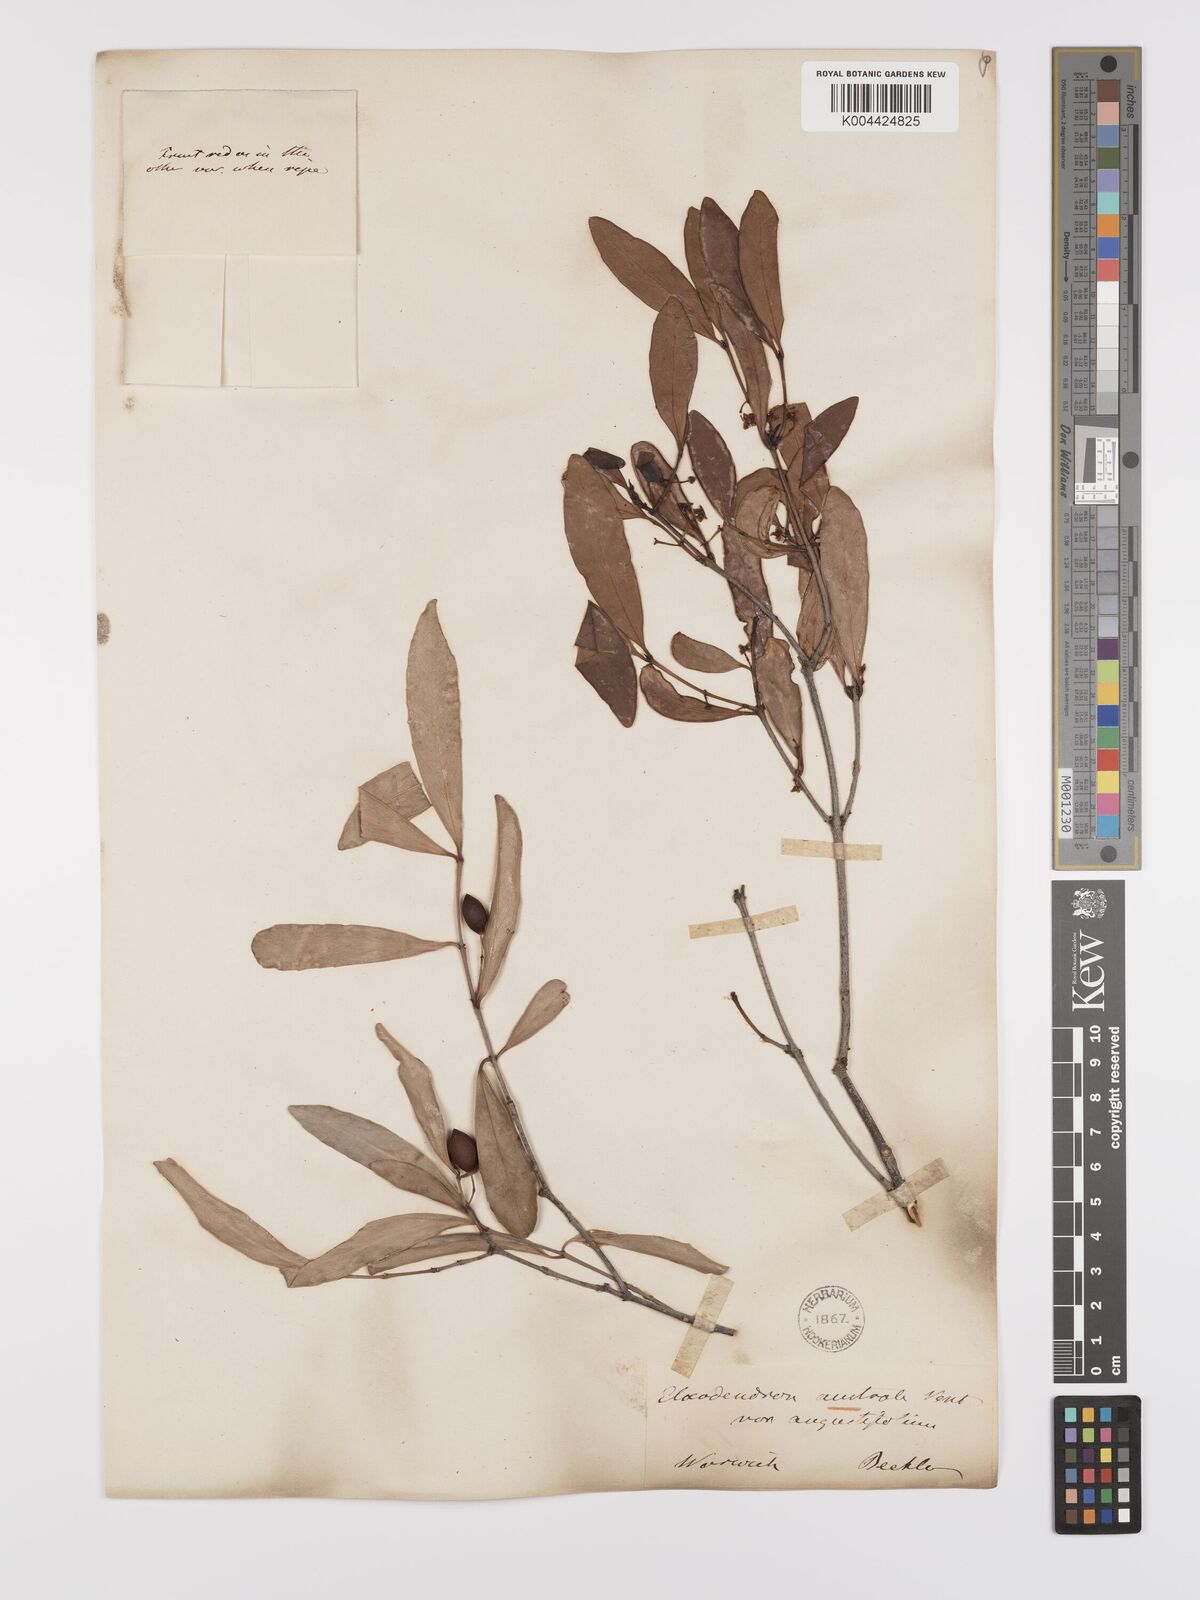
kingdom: Plantae
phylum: Tracheophyta
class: Magnoliopsida
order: Celastrales
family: Celastraceae
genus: Elaeodendron
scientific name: Elaeodendron australe
